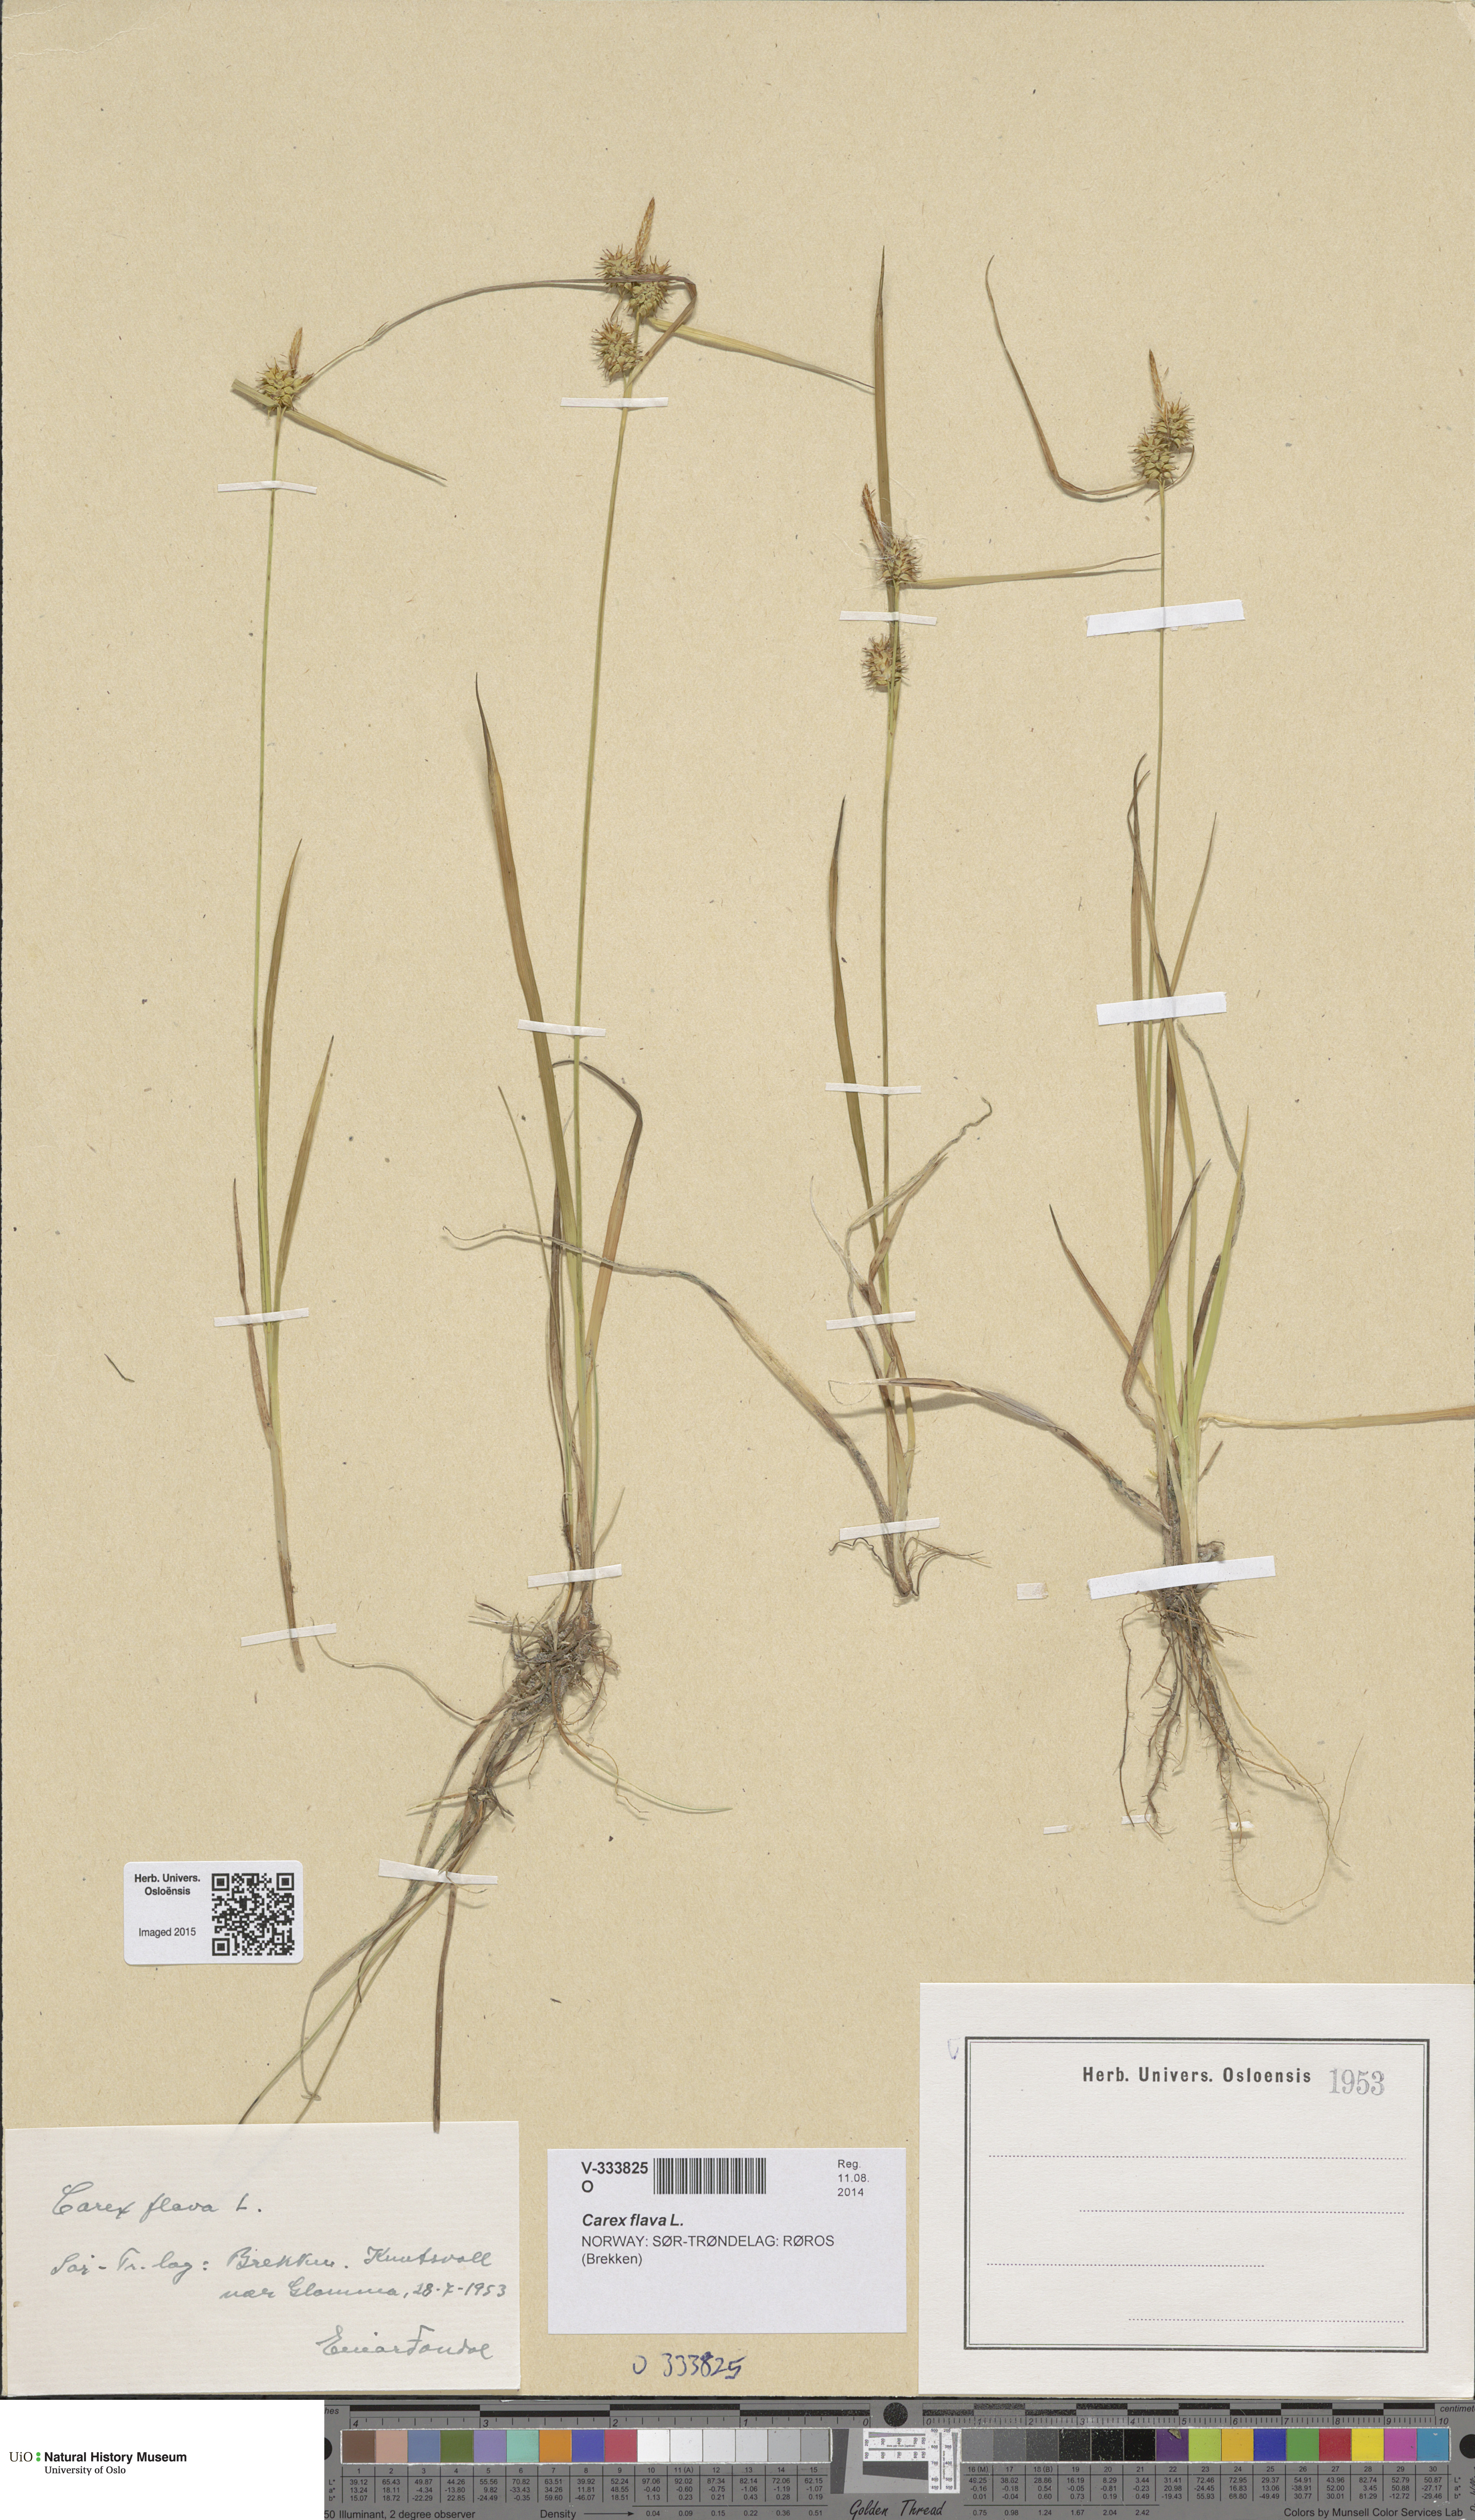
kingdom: Plantae
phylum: Tracheophyta
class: Liliopsida
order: Poales
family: Cyperaceae
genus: Carex
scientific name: Carex flava
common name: Large yellow-sedge
